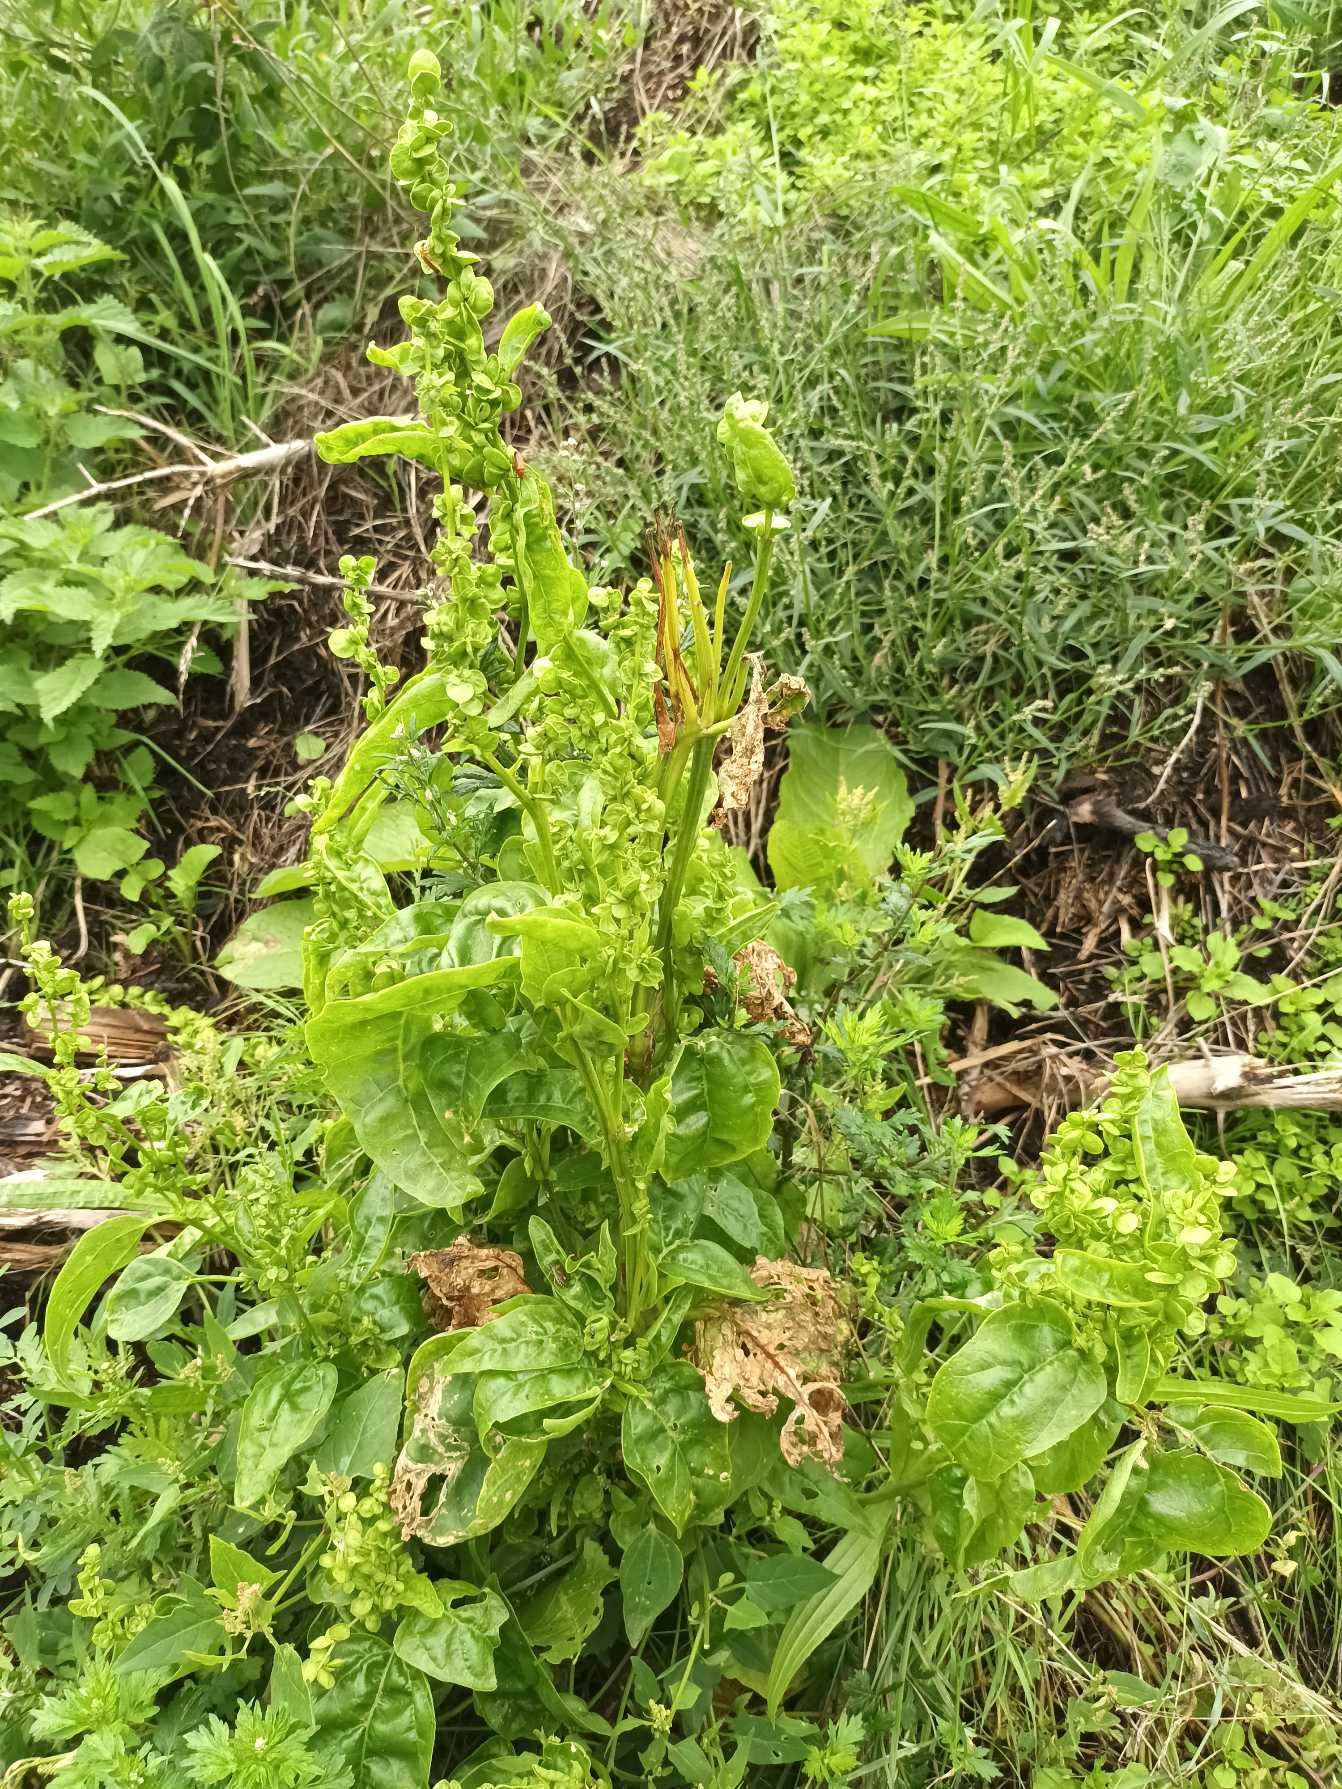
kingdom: Plantae
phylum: Tracheophyta
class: Magnoliopsida
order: Caryophyllales
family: Amaranthaceae
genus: Atriplex
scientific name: Atriplex hortensis
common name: Have-mælde
